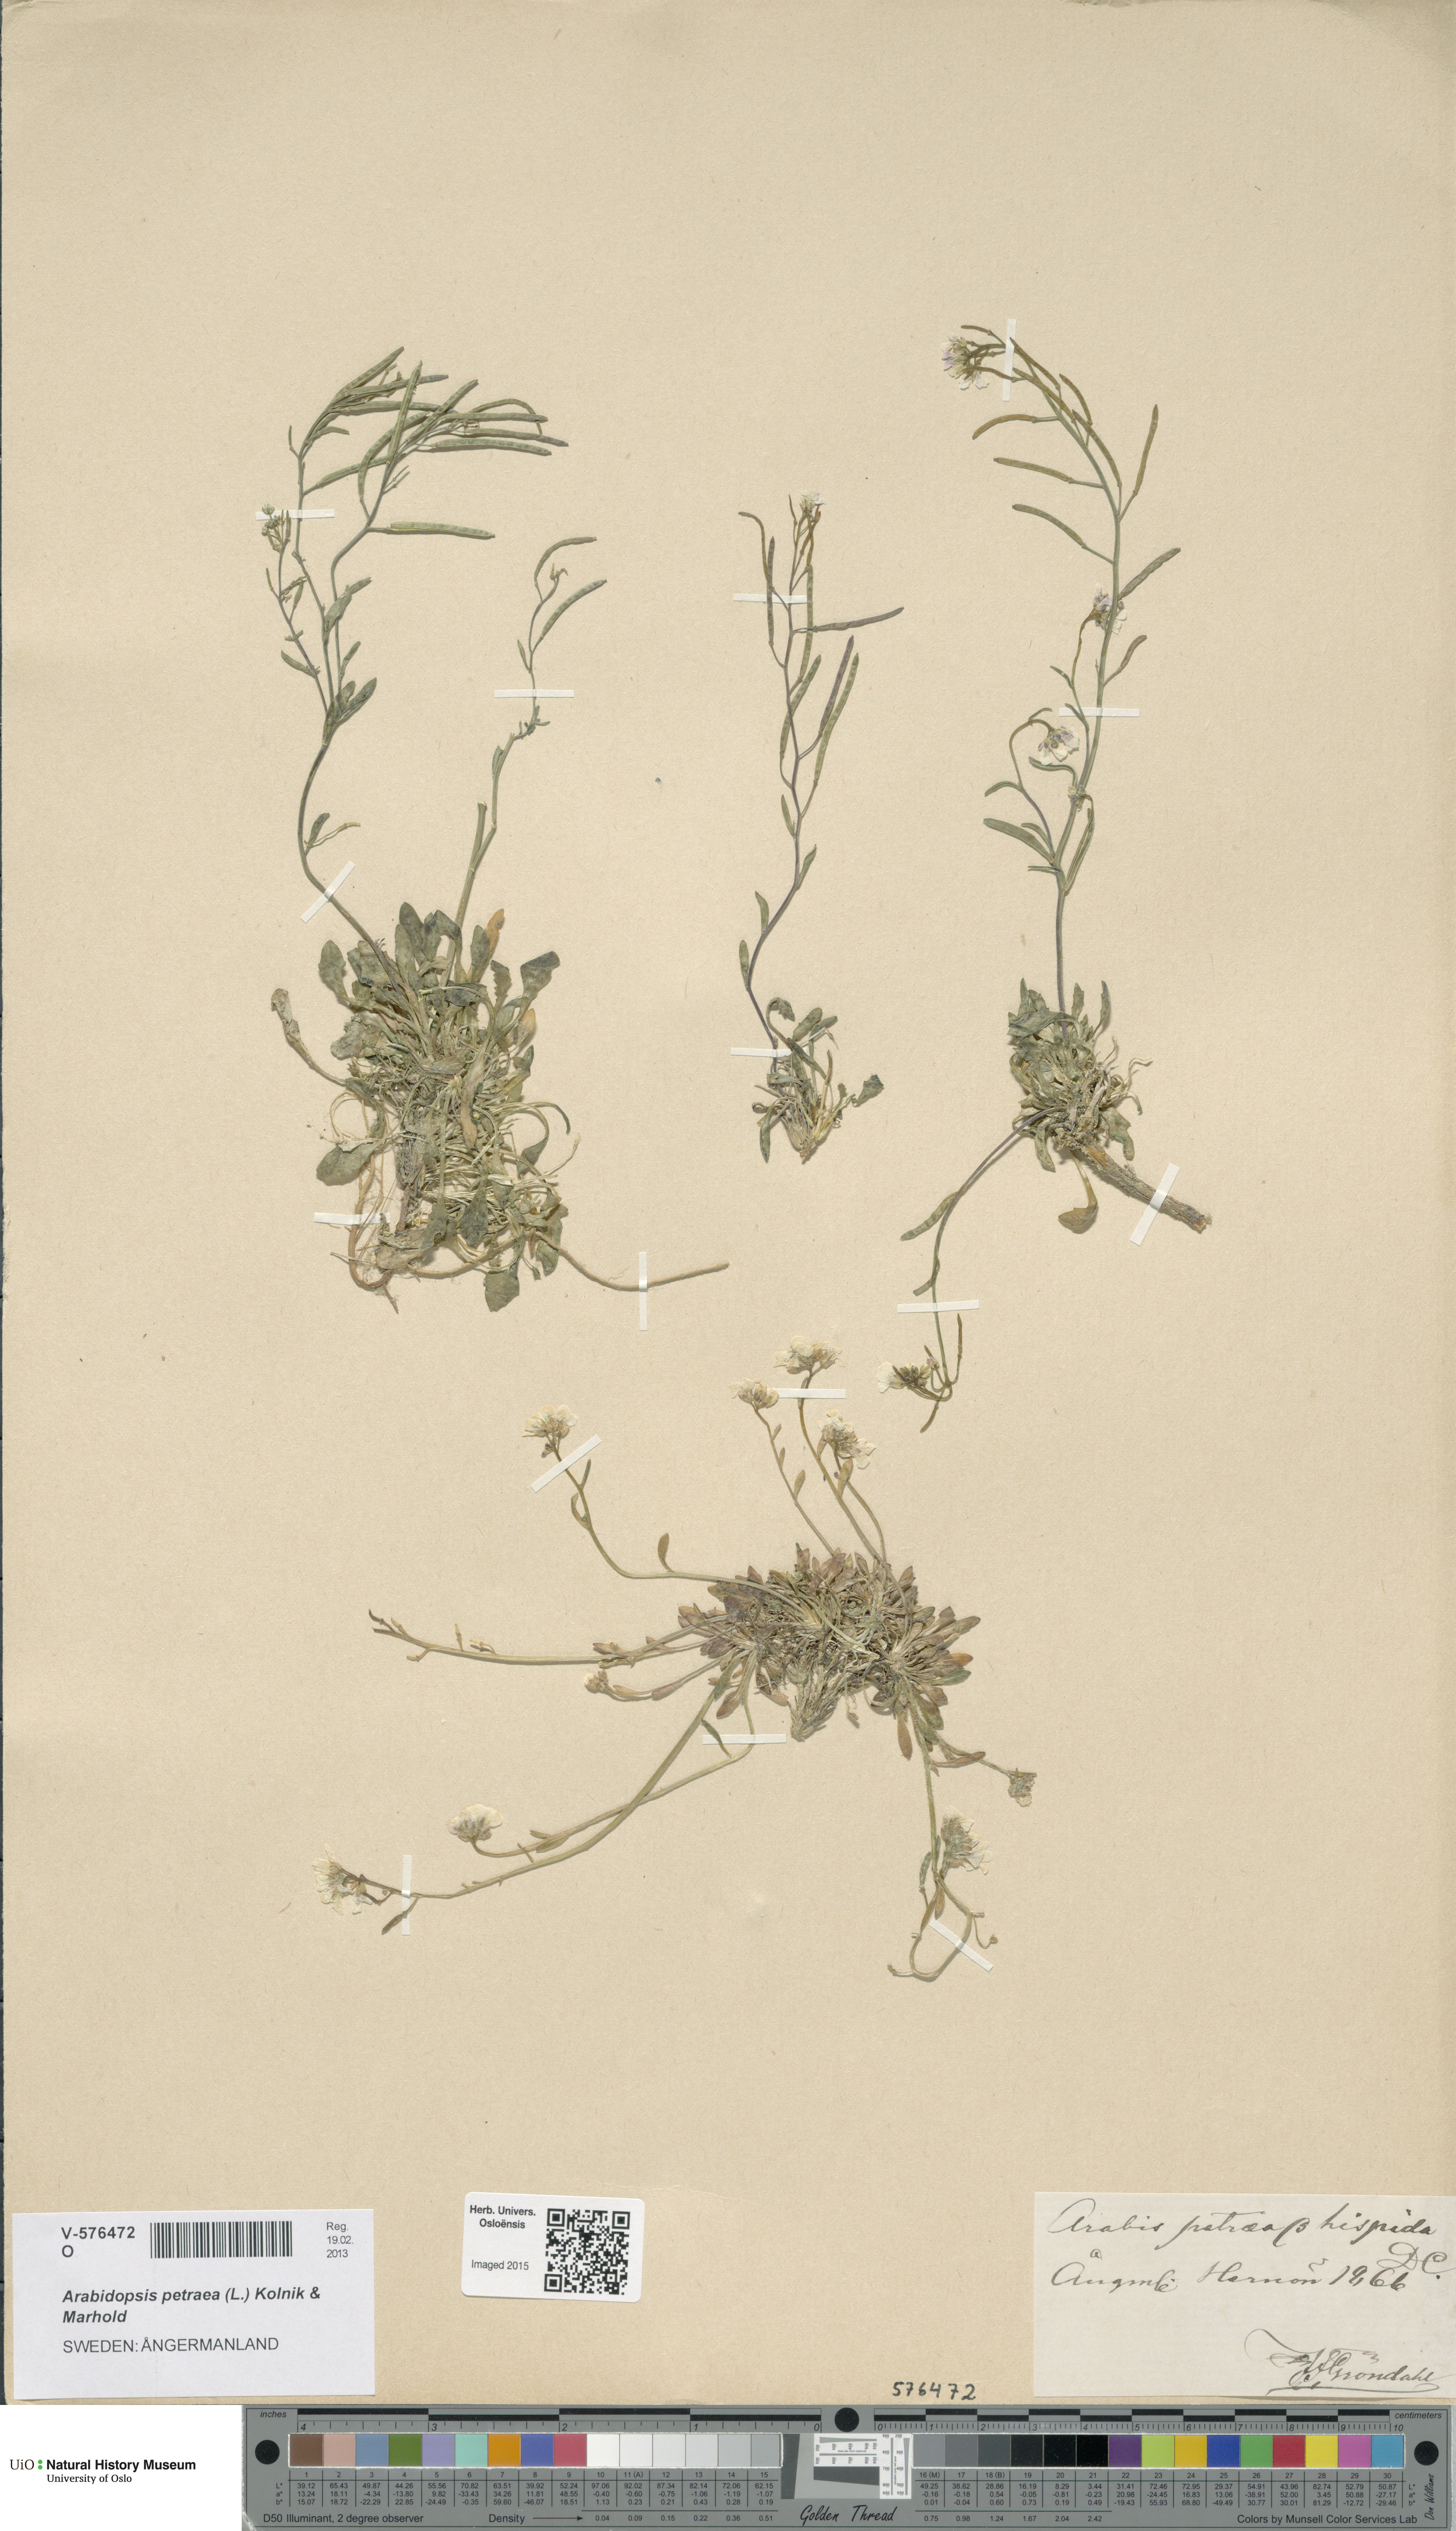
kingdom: Plantae
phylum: Tracheophyta
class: Magnoliopsida
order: Brassicales
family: Brassicaceae
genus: Arabidopsis
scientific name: Arabidopsis petraea
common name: Northern rock-cress
